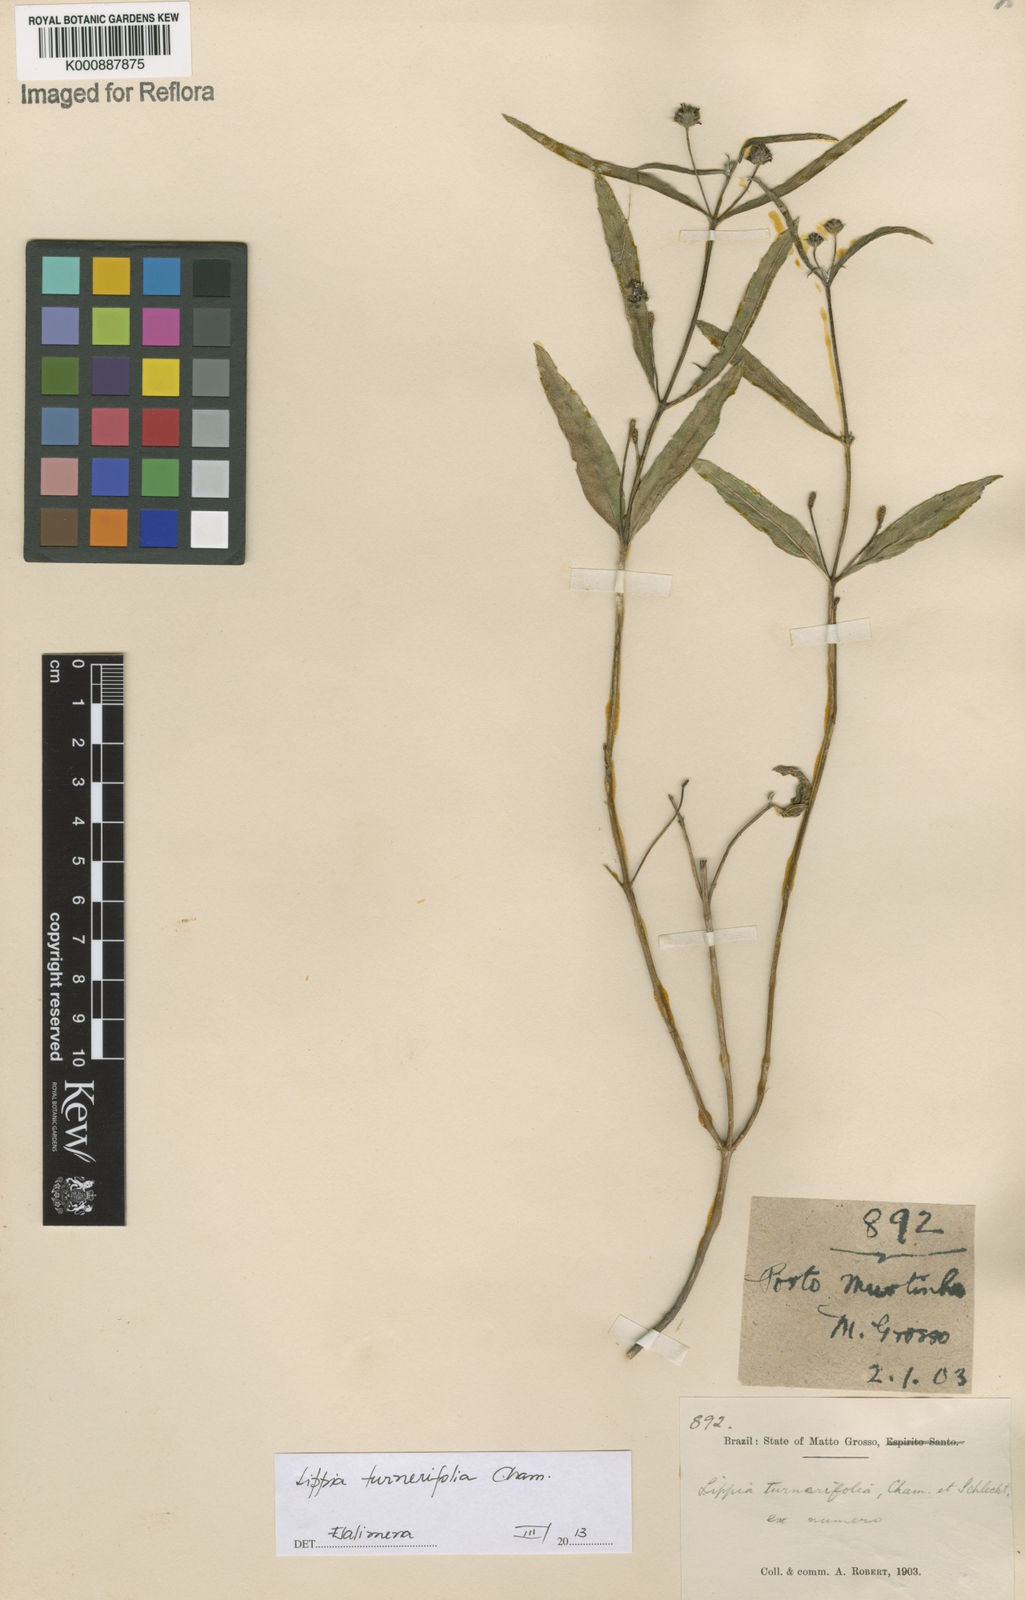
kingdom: Plantae
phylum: Tracheophyta
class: Magnoliopsida
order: Lamiales
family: Verbenaceae
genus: Lippia
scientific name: Lippia turnerifolia
